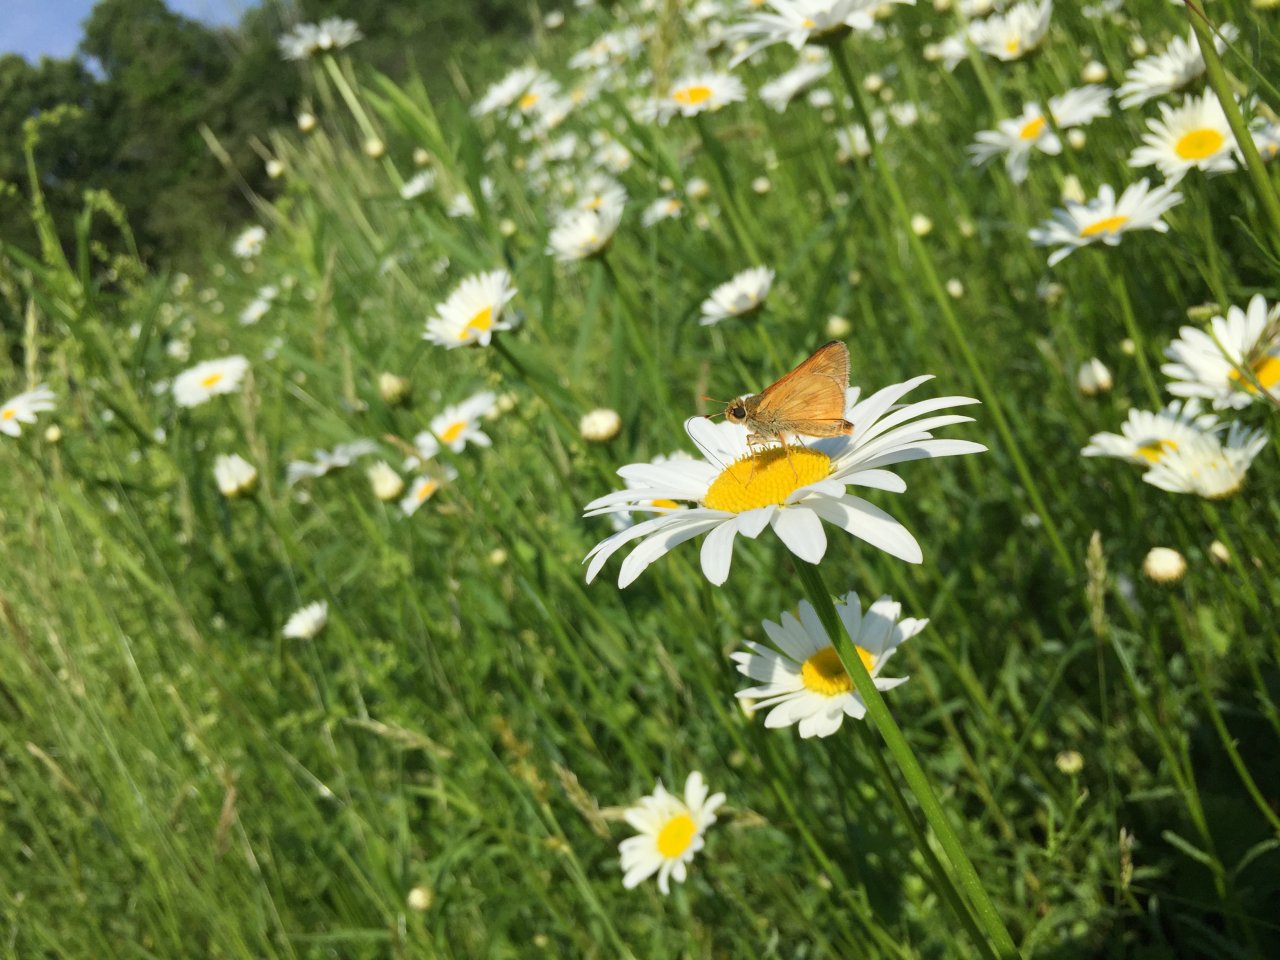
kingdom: Animalia
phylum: Arthropoda
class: Insecta
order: Lepidoptera
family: Hesperiidae
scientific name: Hesperiidae
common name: Skippers
